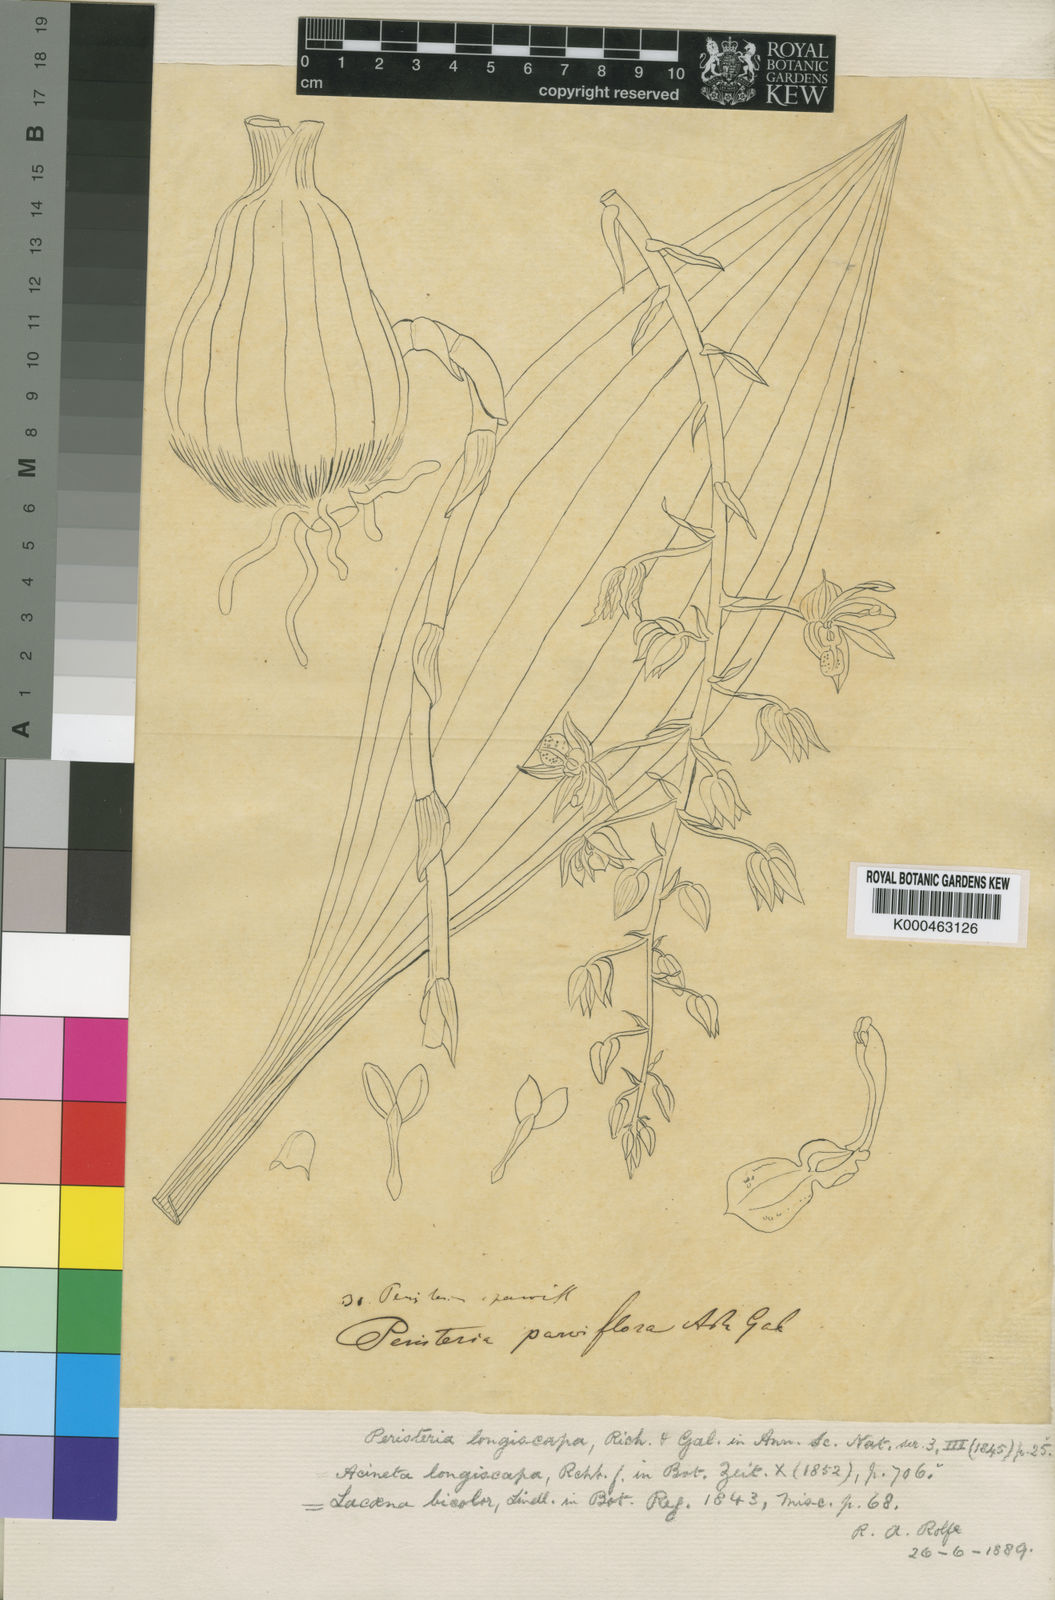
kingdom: Plantae
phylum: Tracheophyta
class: Liliopsida
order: Asparagales
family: Orchidaceae
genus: Lacaena
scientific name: Lacaena bicolor
